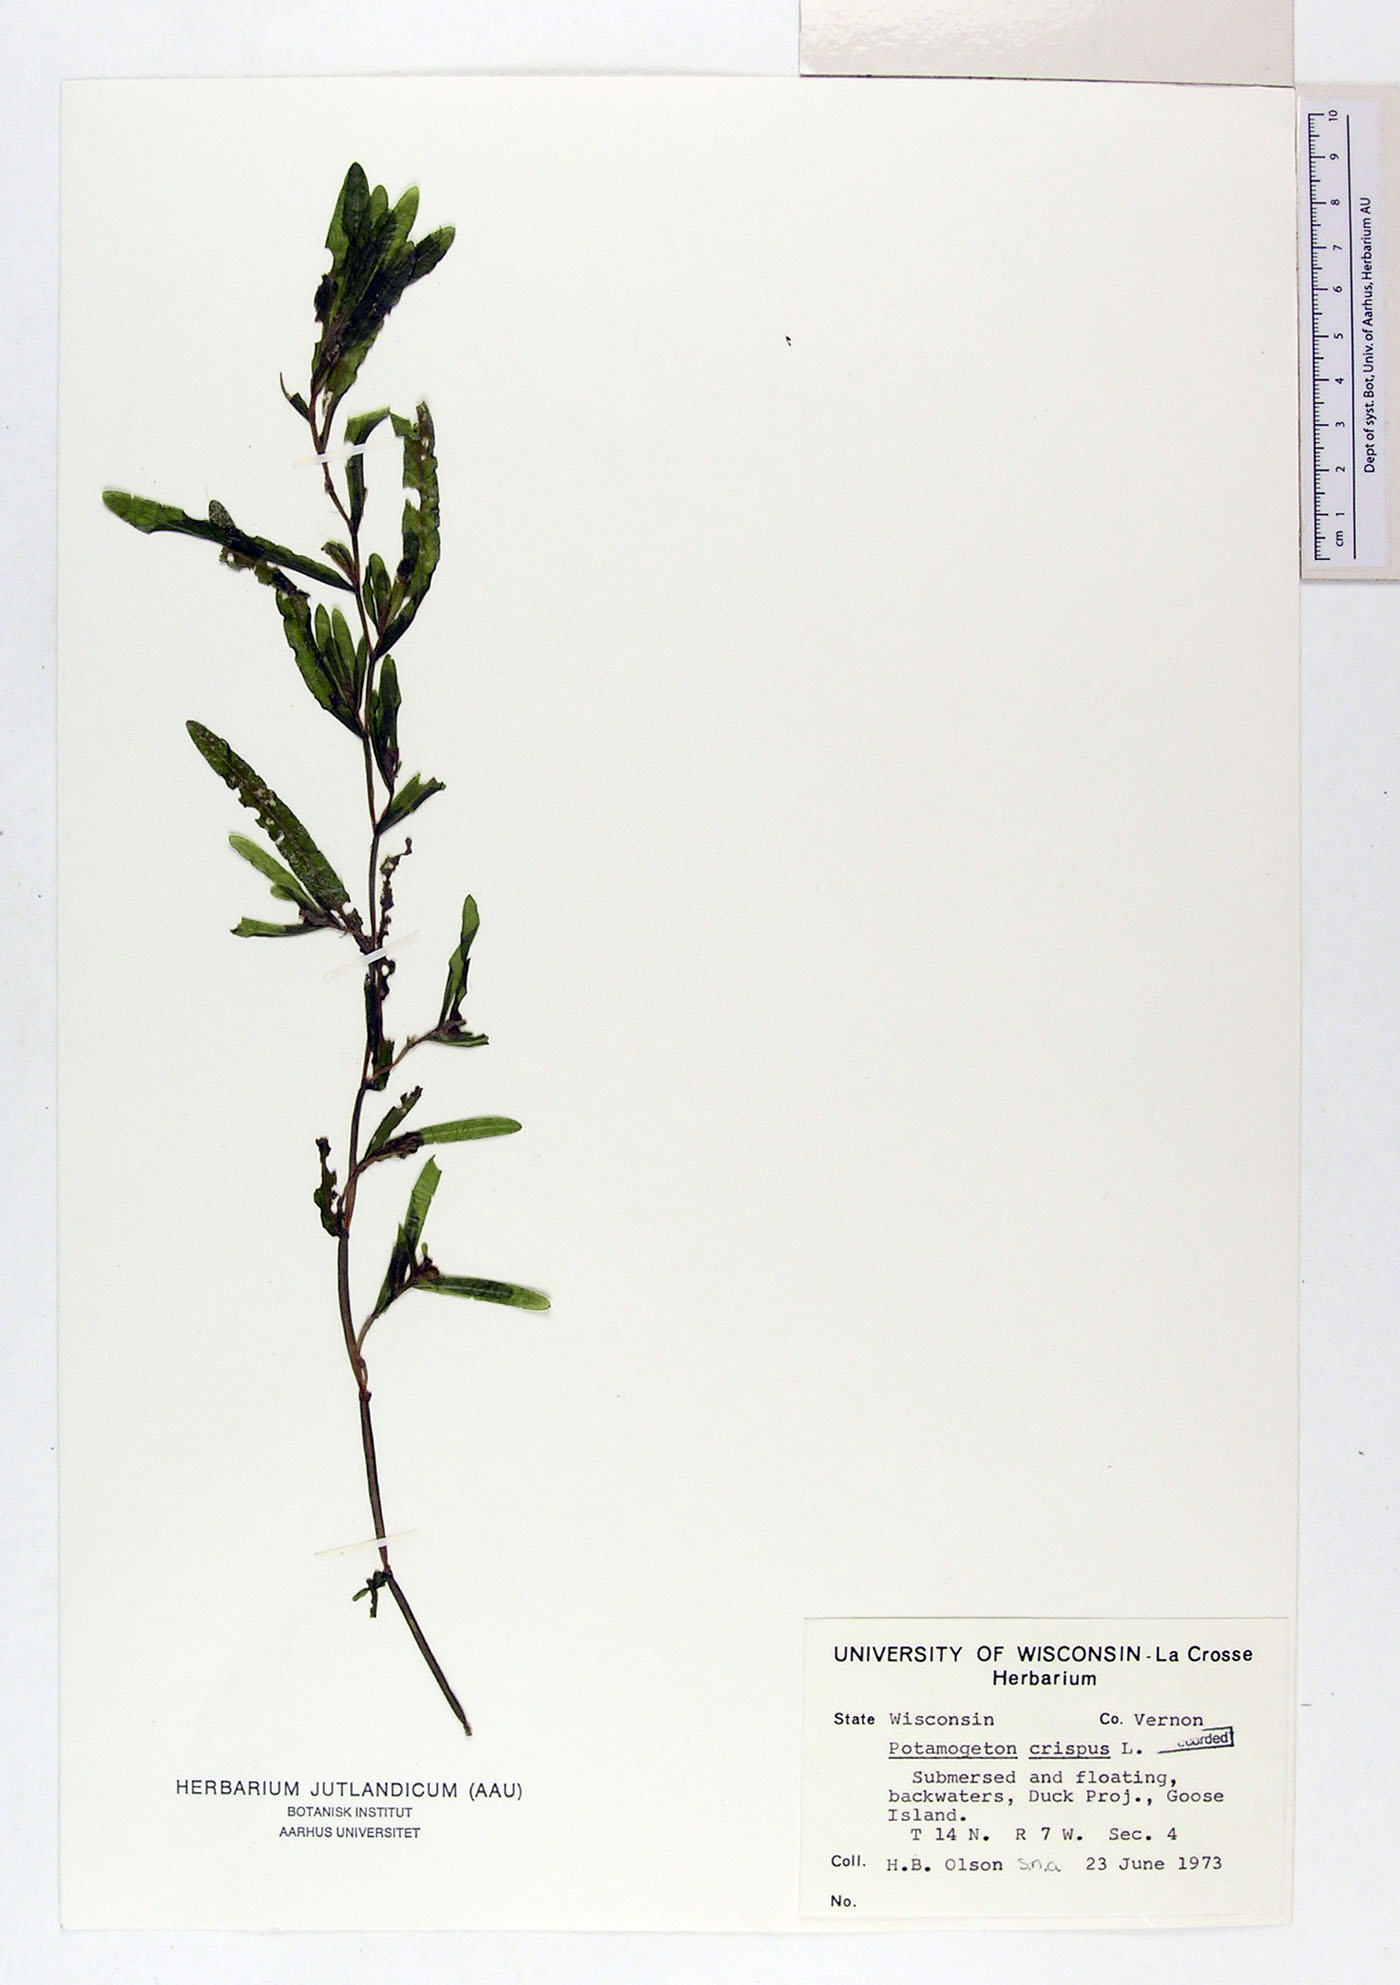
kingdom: Plantae
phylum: Tracheophyta
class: Liliopsida
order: Alismatales
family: Potamogetonaceae
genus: Potamogeton
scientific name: Potamogeton crispus
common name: Curled pondweed
